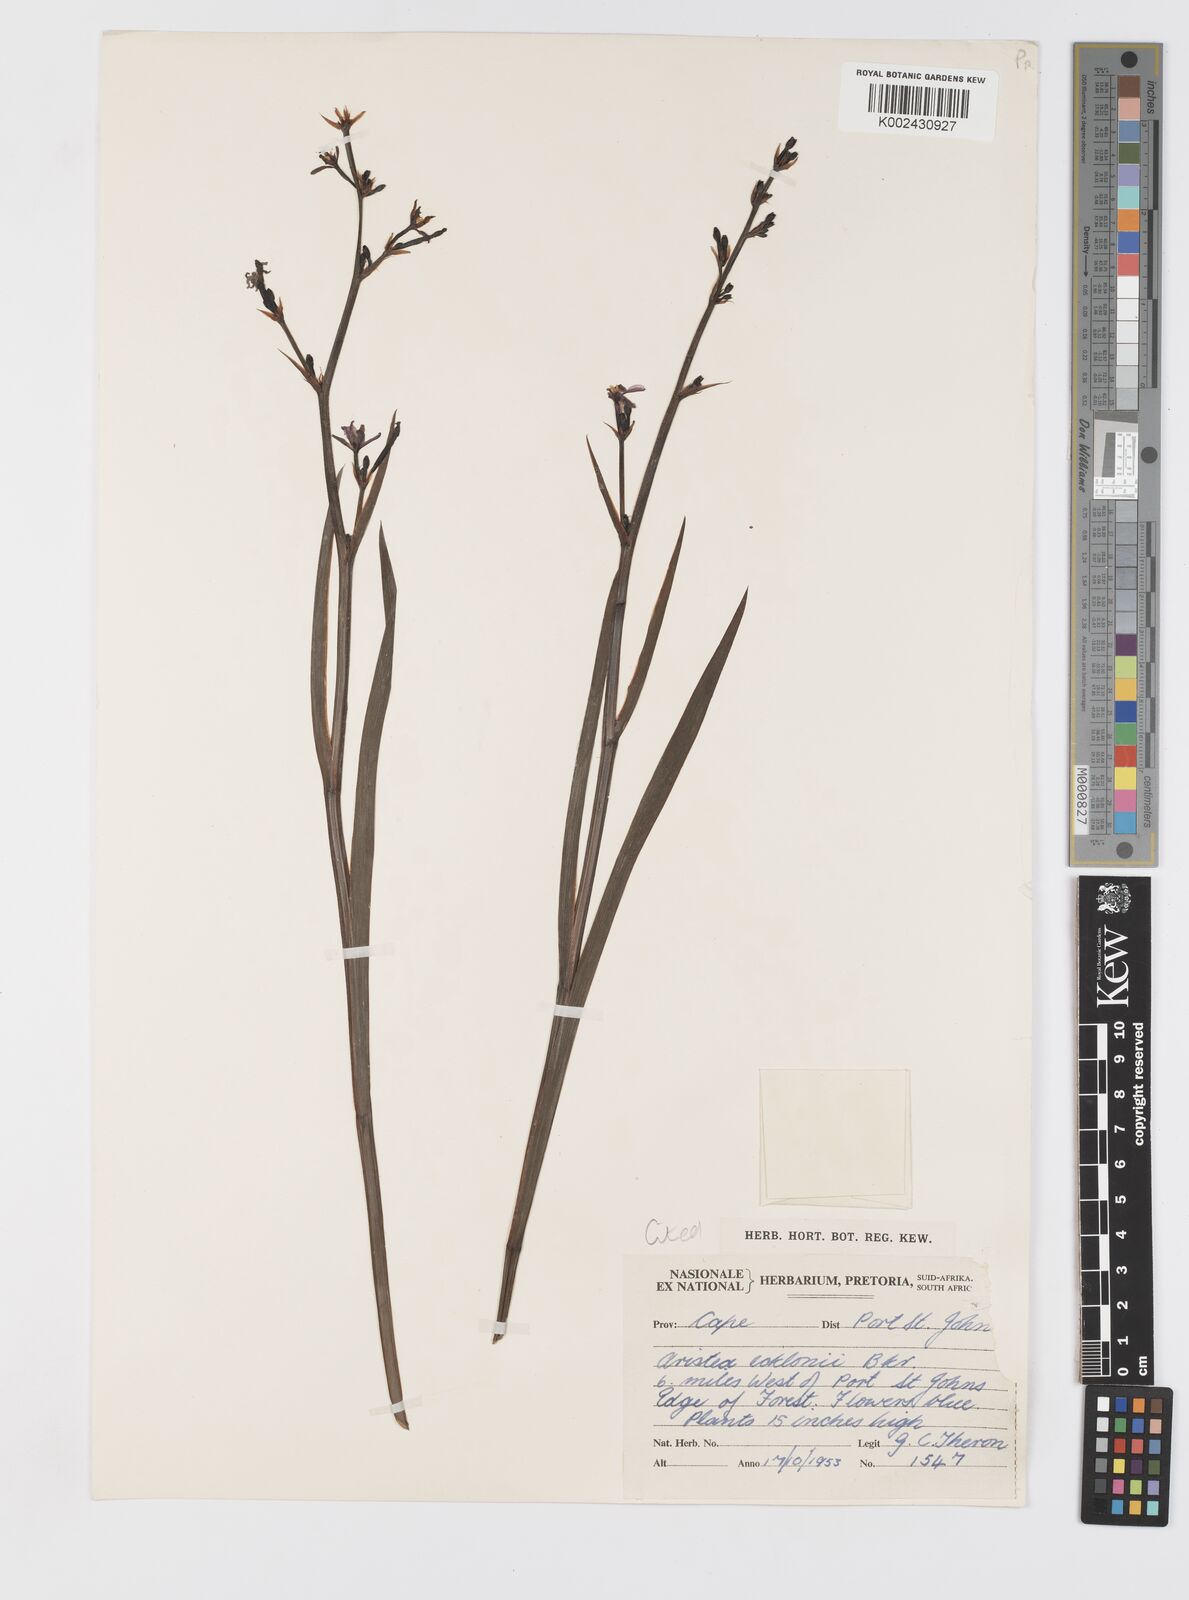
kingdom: Plantae
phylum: Tracheophyta
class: Liliopsida
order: Asparagales
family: Iridaceae
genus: Aristea
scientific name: Aristea ecklonii
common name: Blue corn-lily
